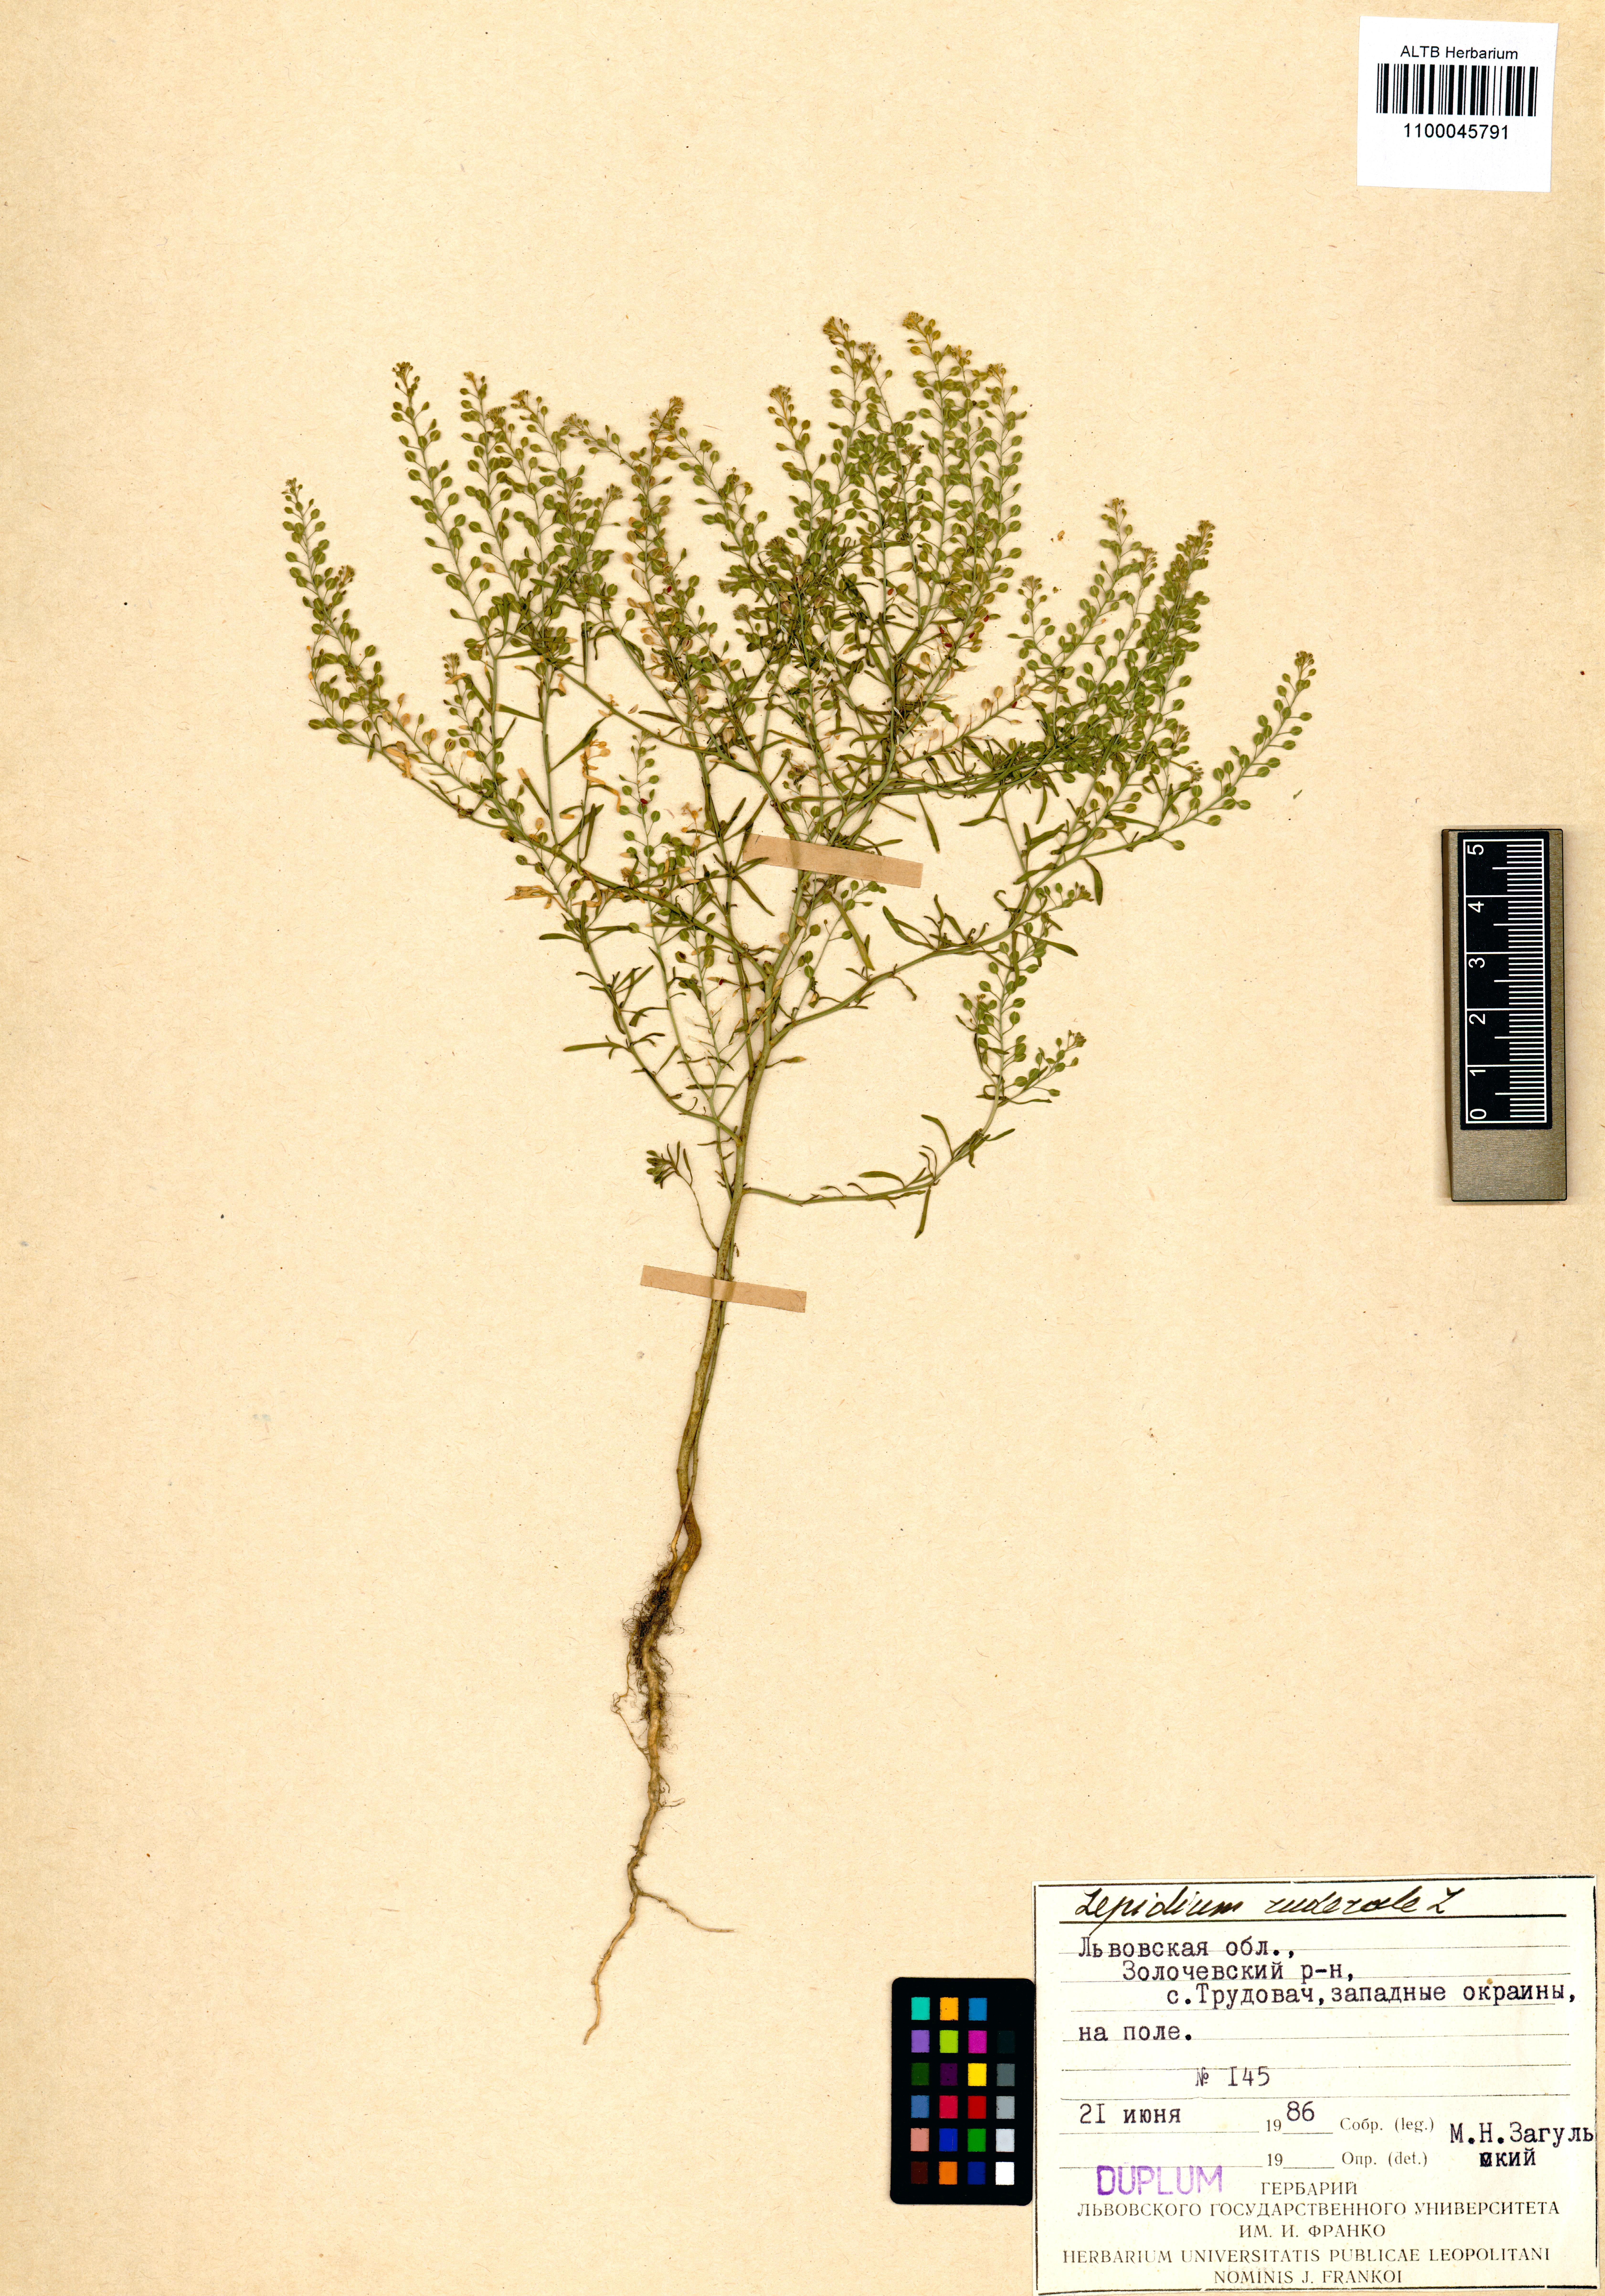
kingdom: Plantae
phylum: Tracheophyta
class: Magnoliopsida
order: Brassicales
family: Brassicaceae
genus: Lepidium
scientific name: Lepidium ruderale
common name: Narrow-leaved pepperwort
